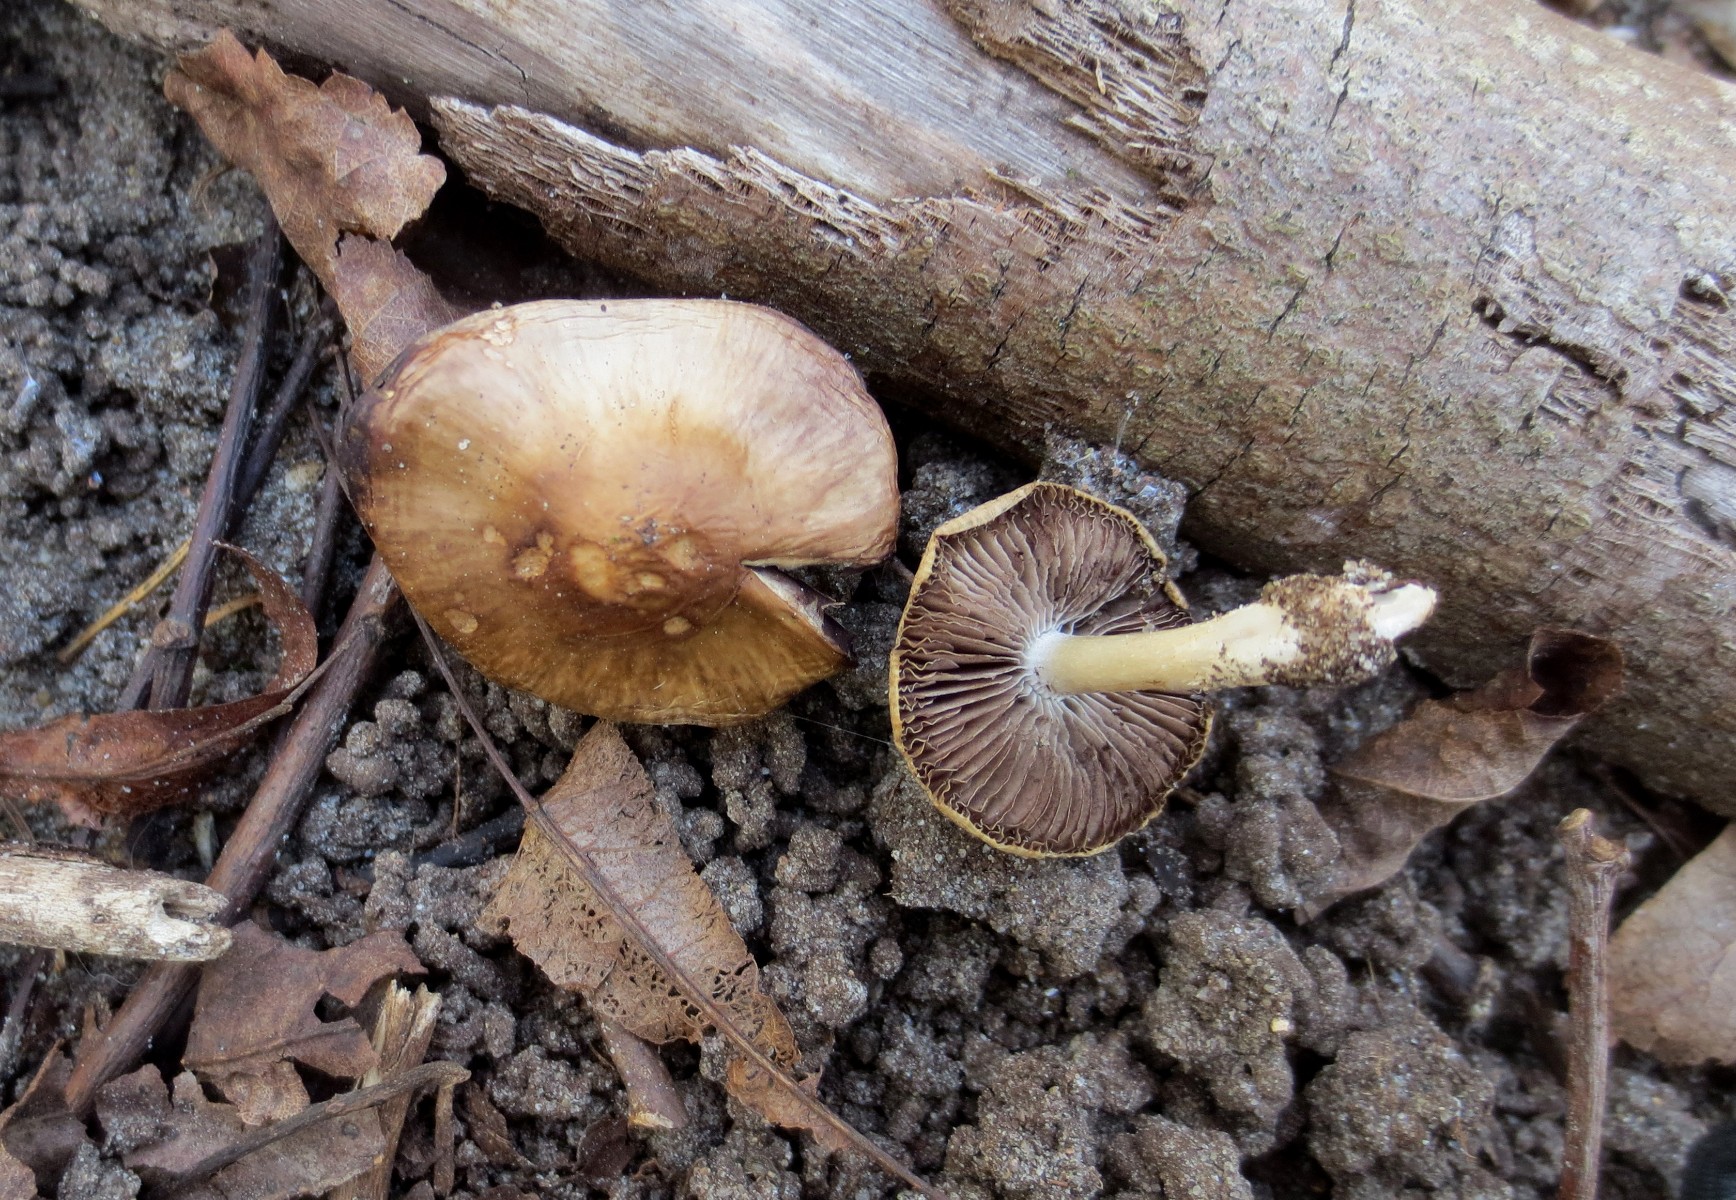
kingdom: Fungi
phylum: Basidiomycota
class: Agaricomycetes
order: Agaricales
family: Psathyrellaceae
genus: Psathyrella
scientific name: Psathyrella spadiceogrisea
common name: gråbrun mørkhat
